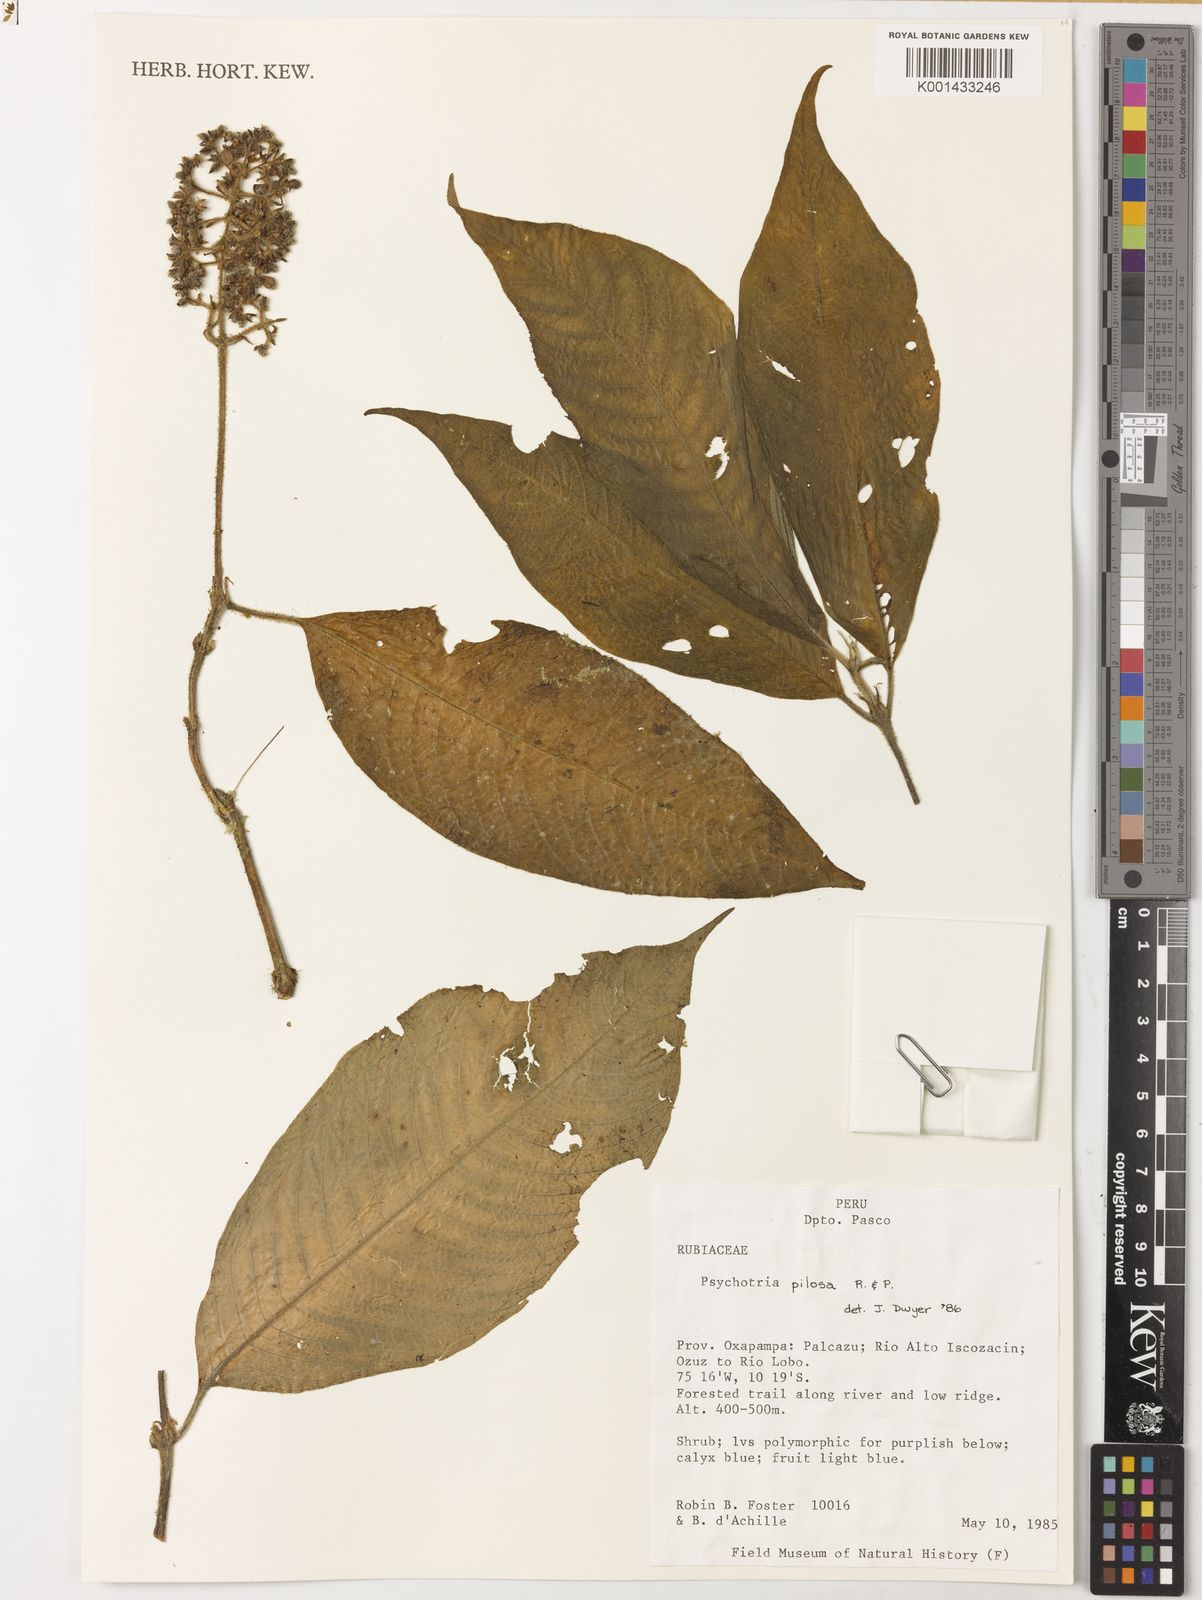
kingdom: Plantae
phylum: Tracheophyta
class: Magnoliopsida
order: Gentianales
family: Rubiaceae
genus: Palicourea
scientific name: Palicourea pilosa
